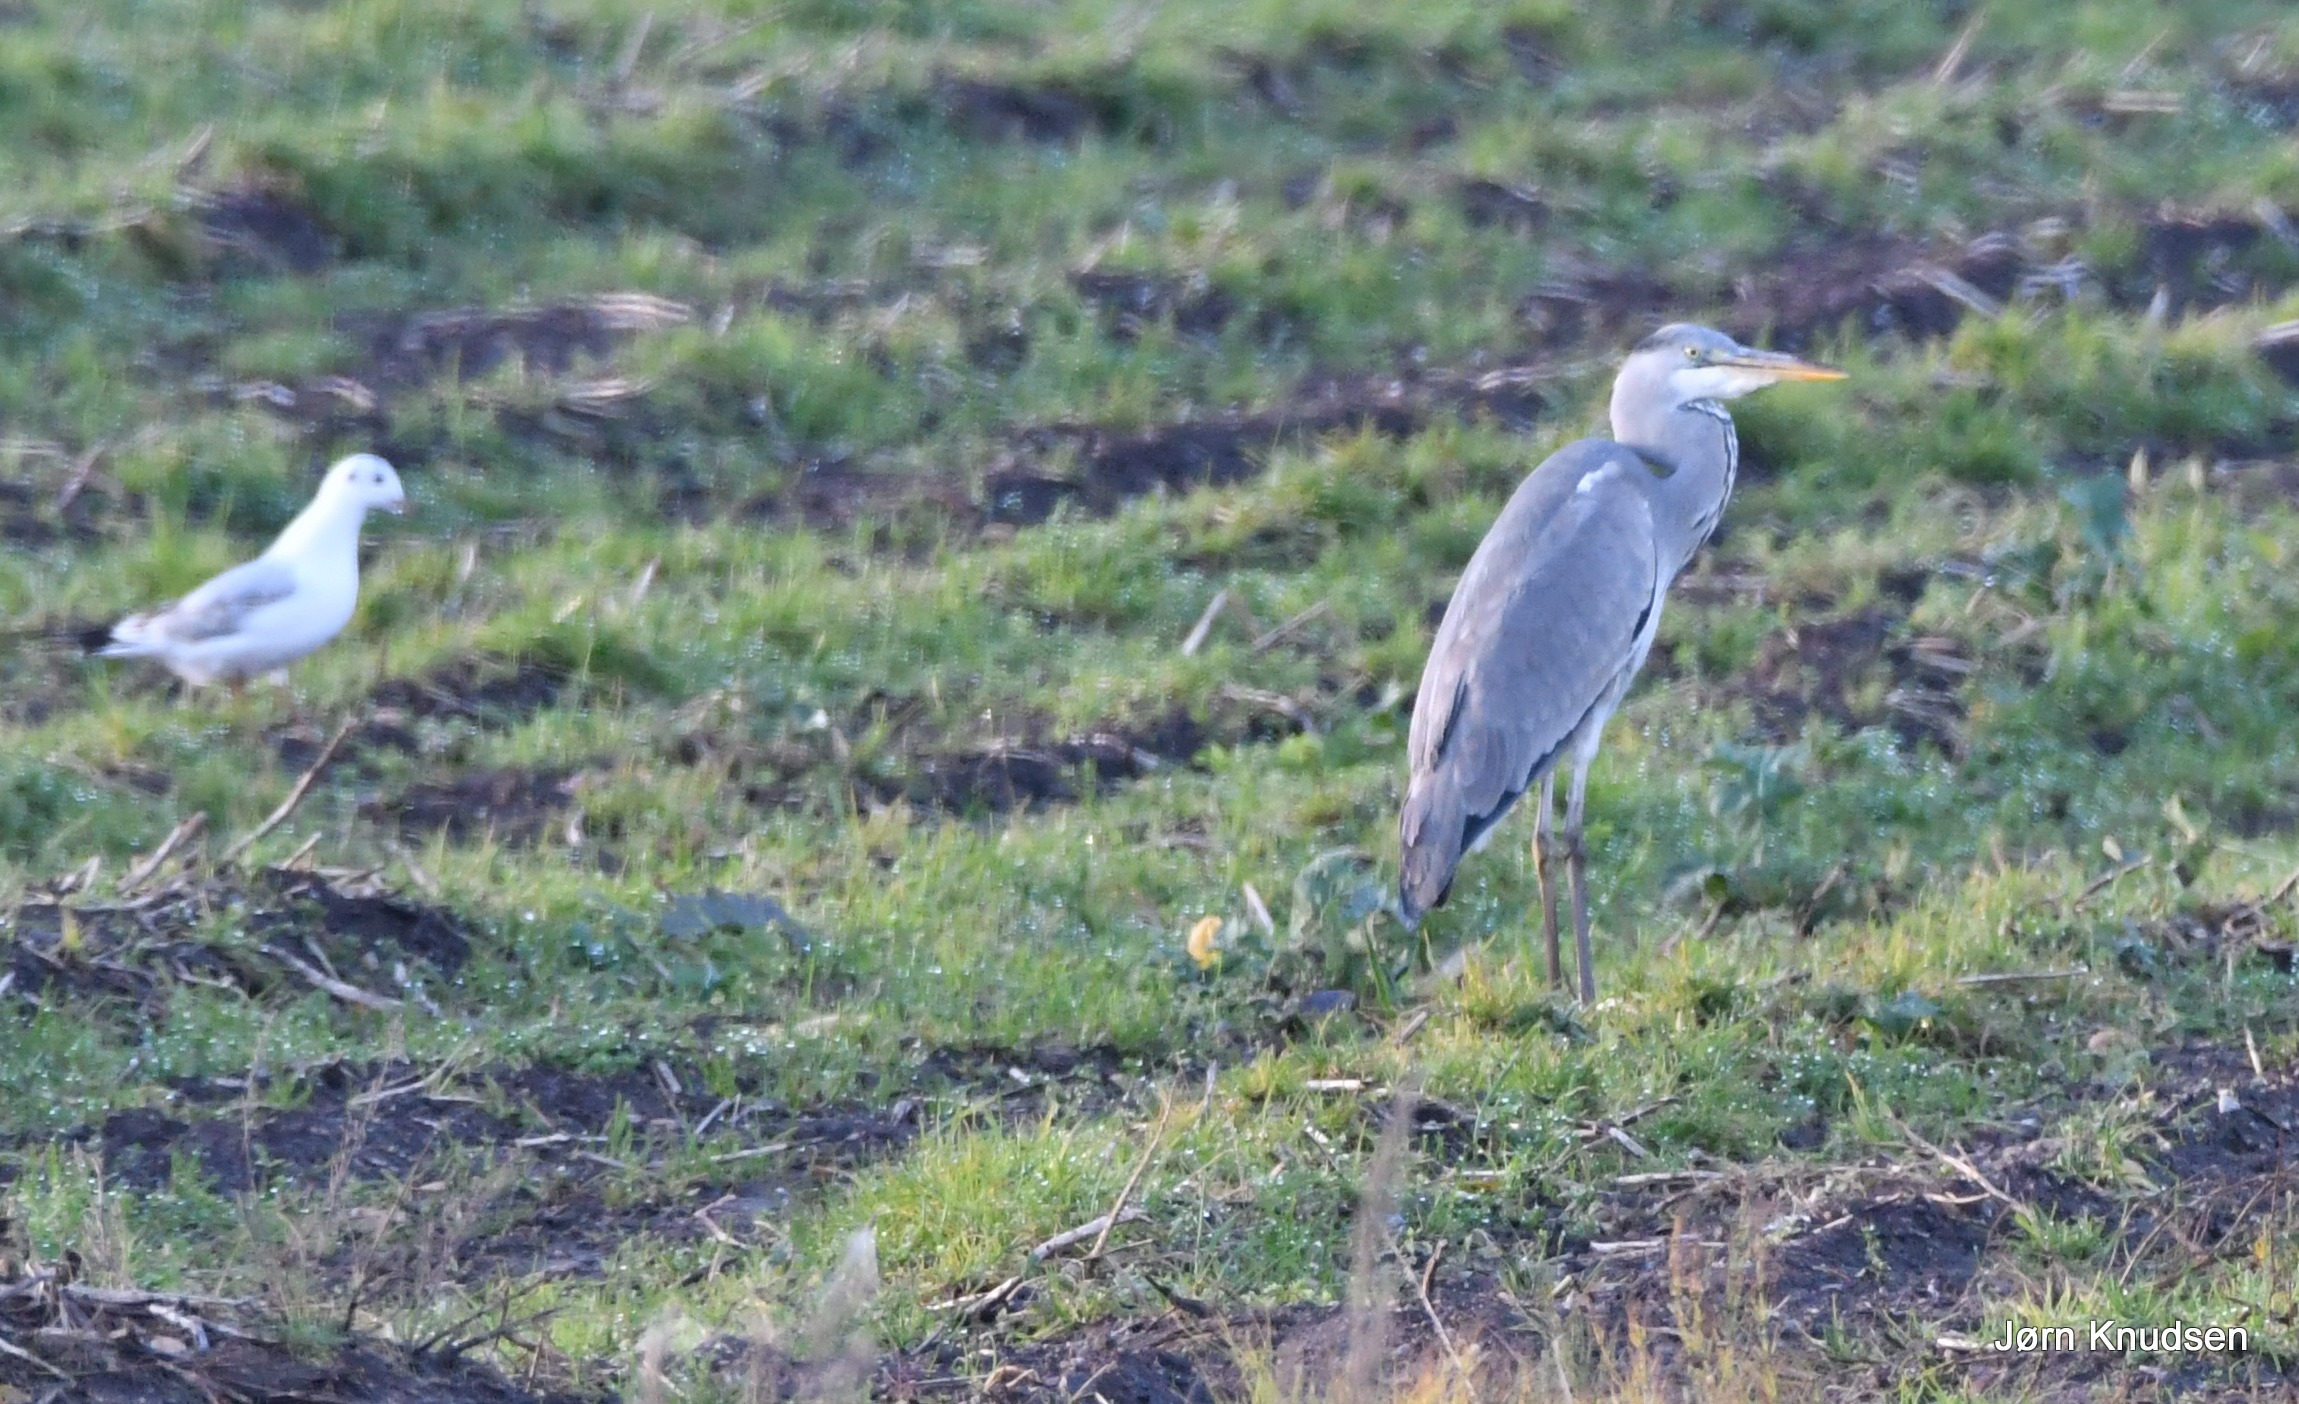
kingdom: Animalia
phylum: Chordata
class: Aves
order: Pelecaniformes
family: Ardeidae
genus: Ardea
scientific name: Ardea cinerea
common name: Fiskehejre
